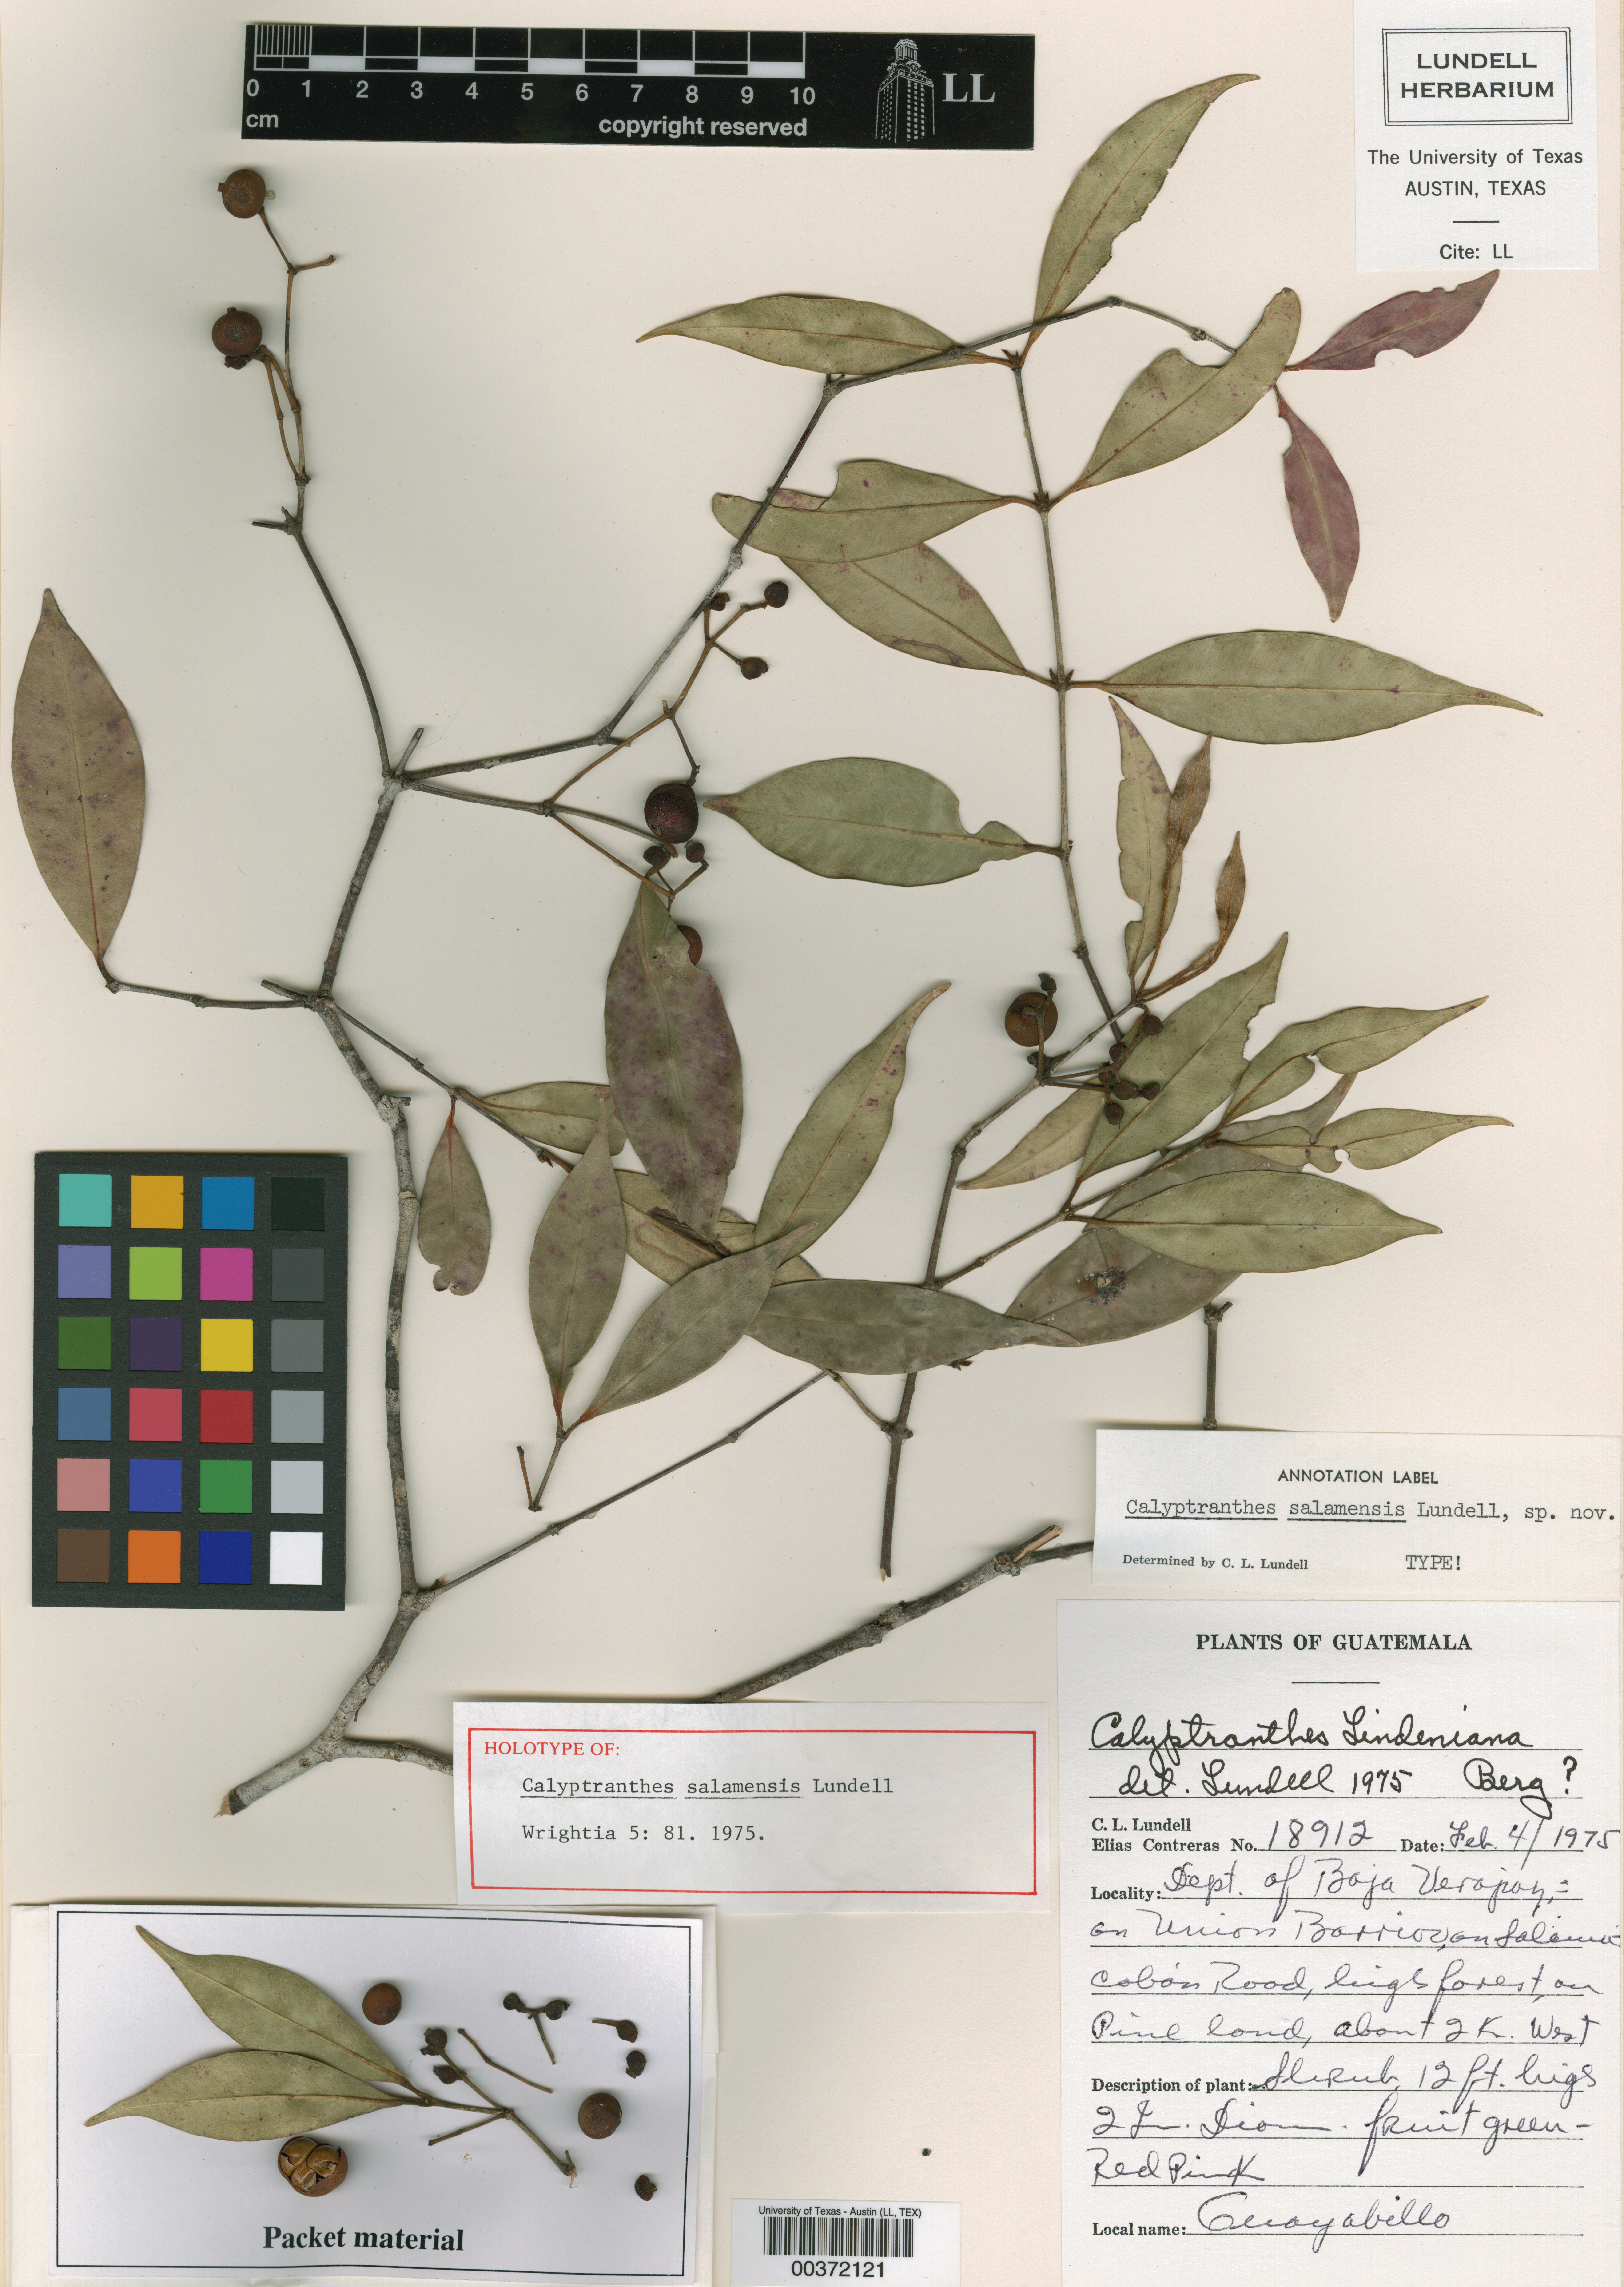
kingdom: Plantae
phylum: Tracheophyta
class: Magnoliopsida
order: Myrtales
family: Myrtaceae
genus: Myrcia
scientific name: Myrcia salamensis
